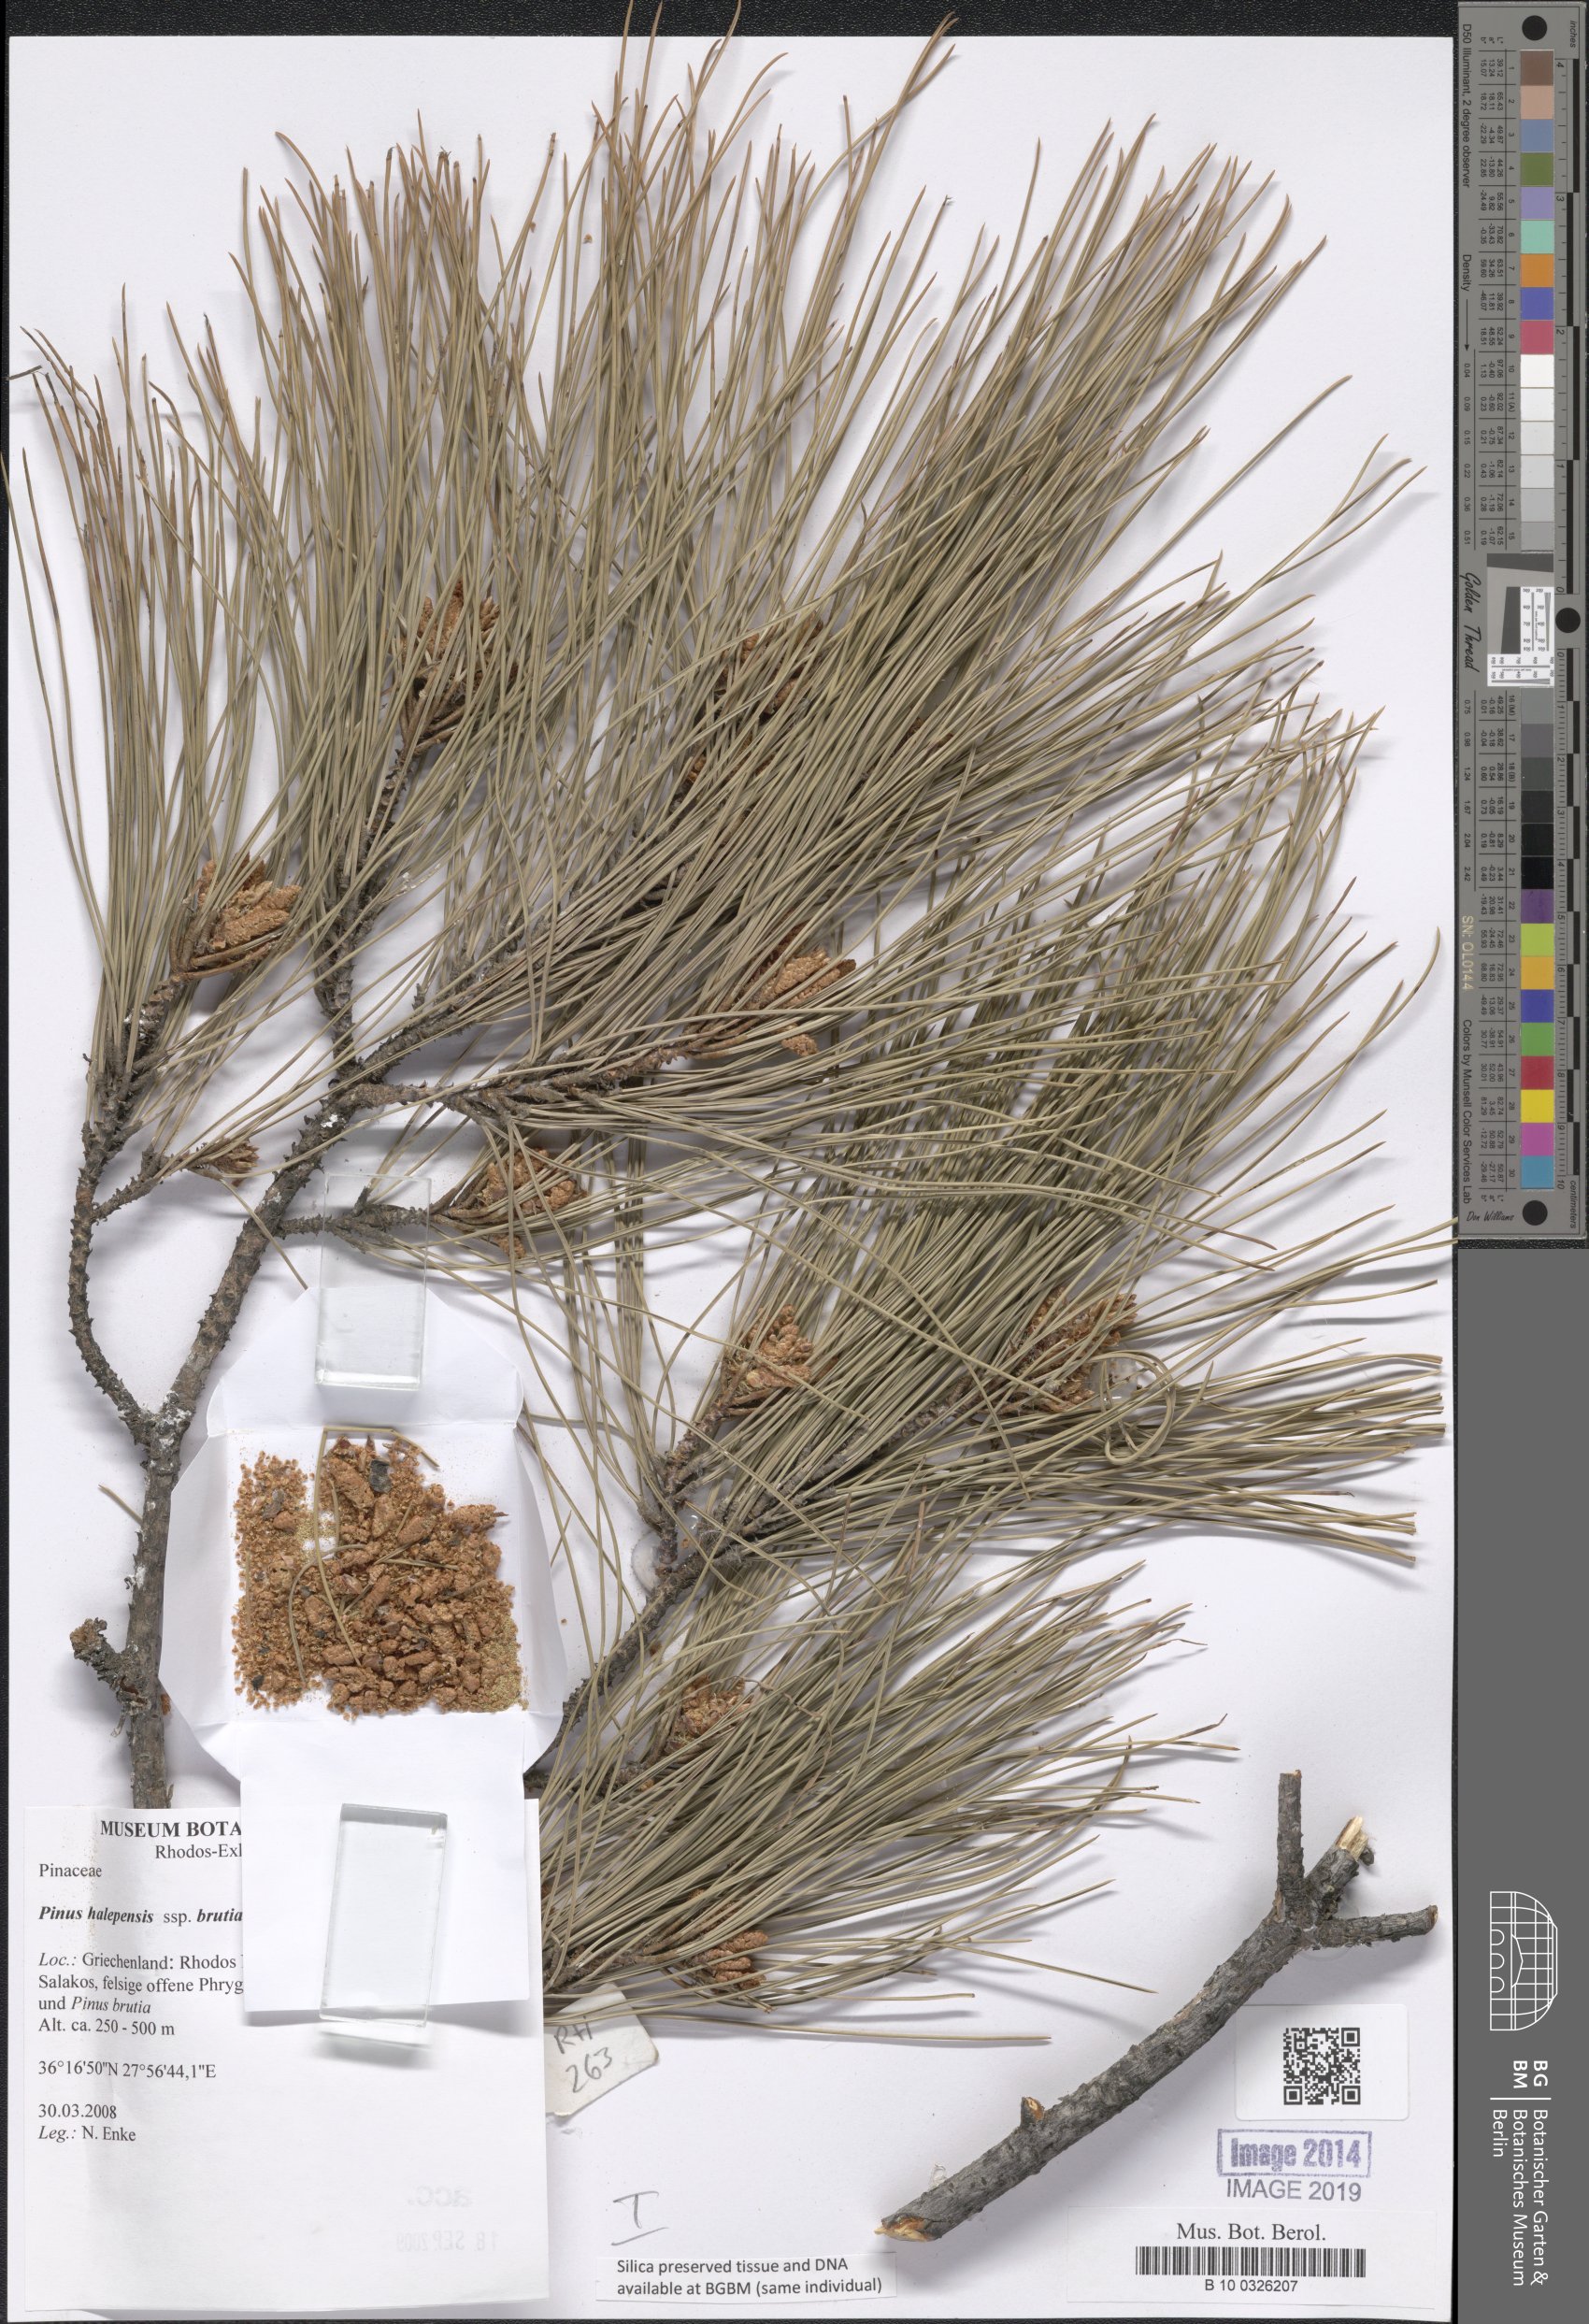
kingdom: Plantae
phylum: Tracheophyta
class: Pinopsida
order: Pinales
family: Pinaceae
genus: Pinus
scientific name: Pinus brutia
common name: Turkish pine
